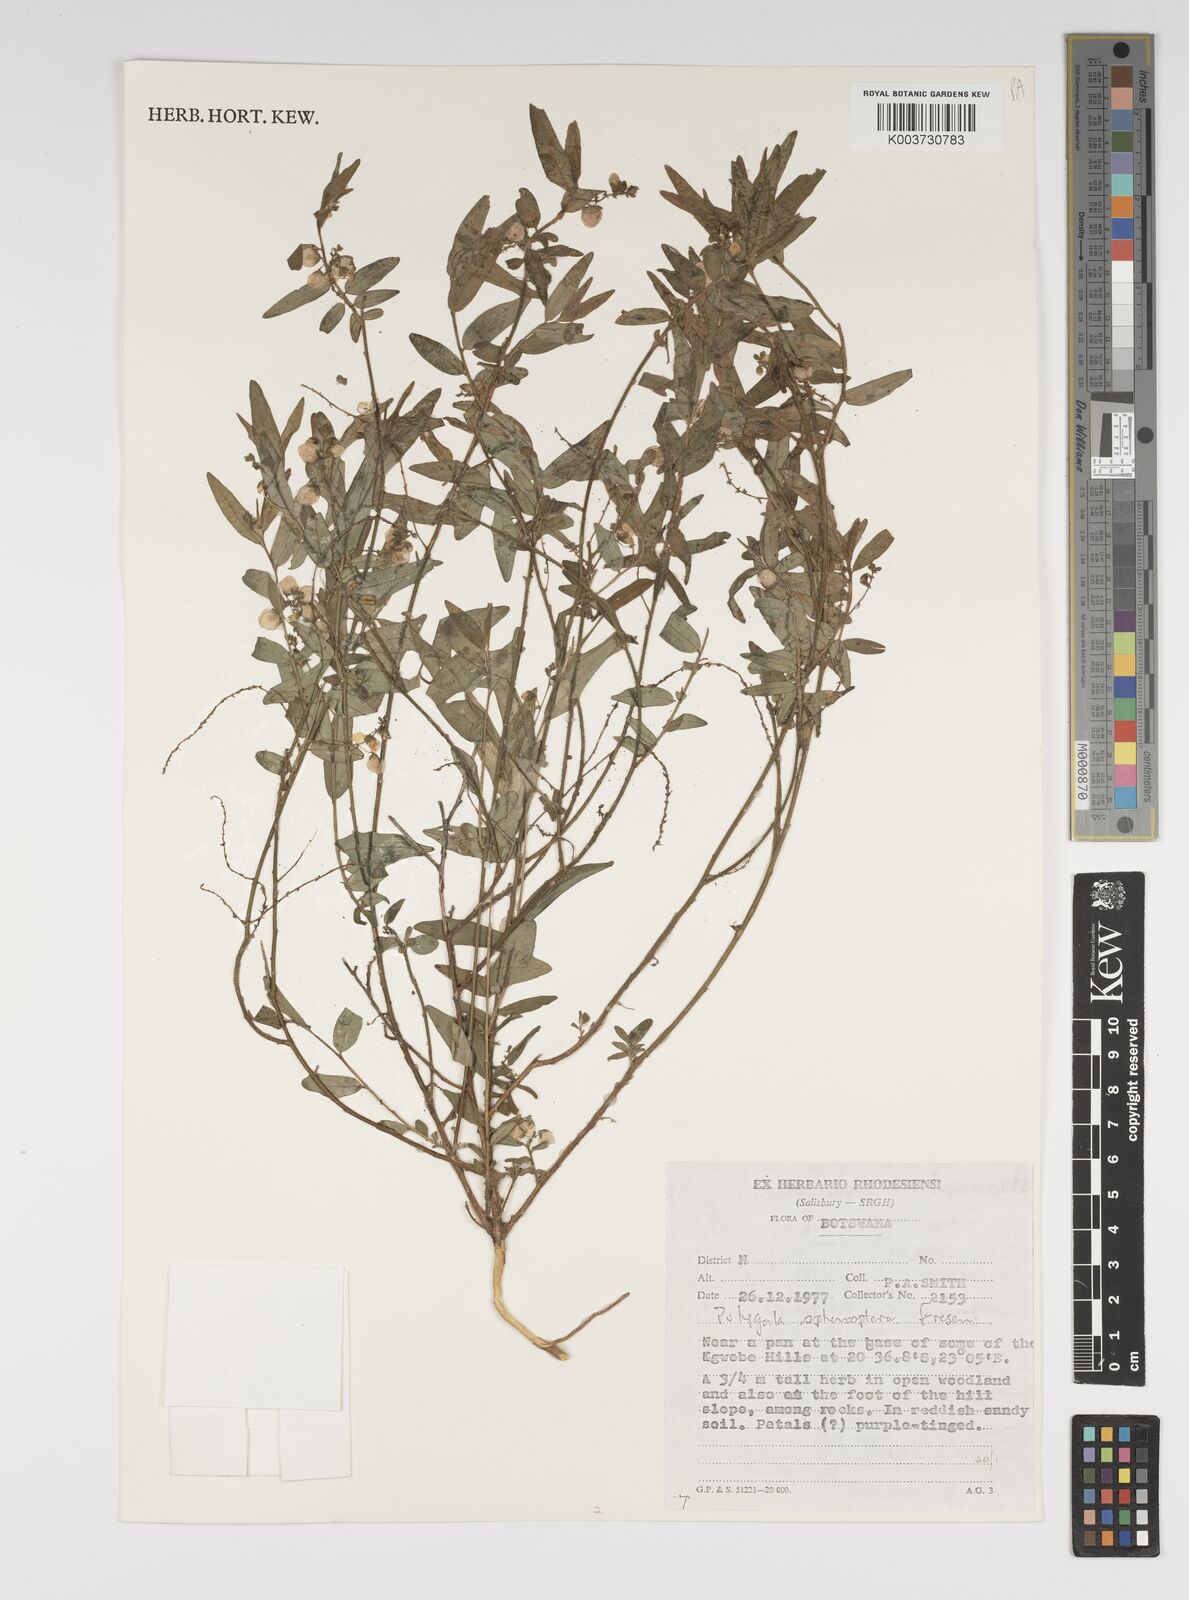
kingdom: Plantae
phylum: Tracheophyta
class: Magnoliopsida
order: Fabales
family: Polygalaceae
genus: Polygala
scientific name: Polygala sphenoptera
